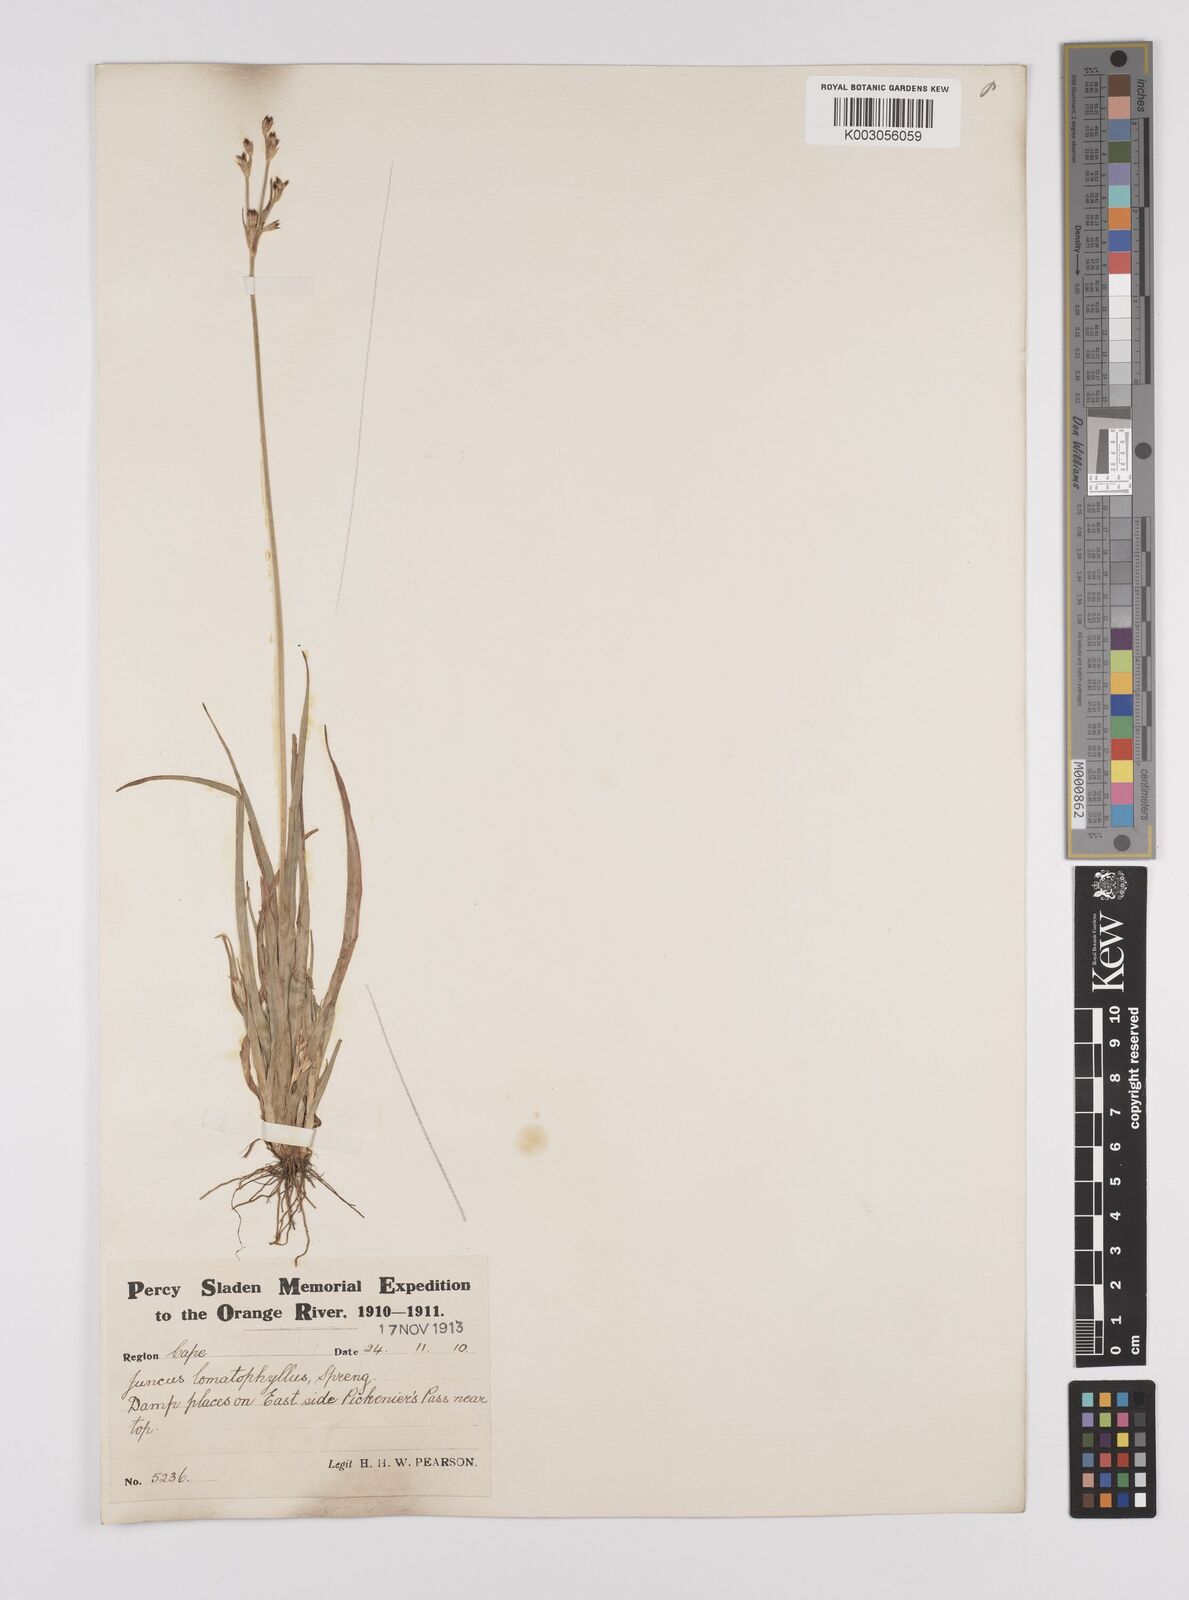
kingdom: Plantae
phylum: Tracheophyta
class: Liliopsida
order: Poales
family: Juncaceae
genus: Juncus
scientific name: Juncus lomatophyllus
